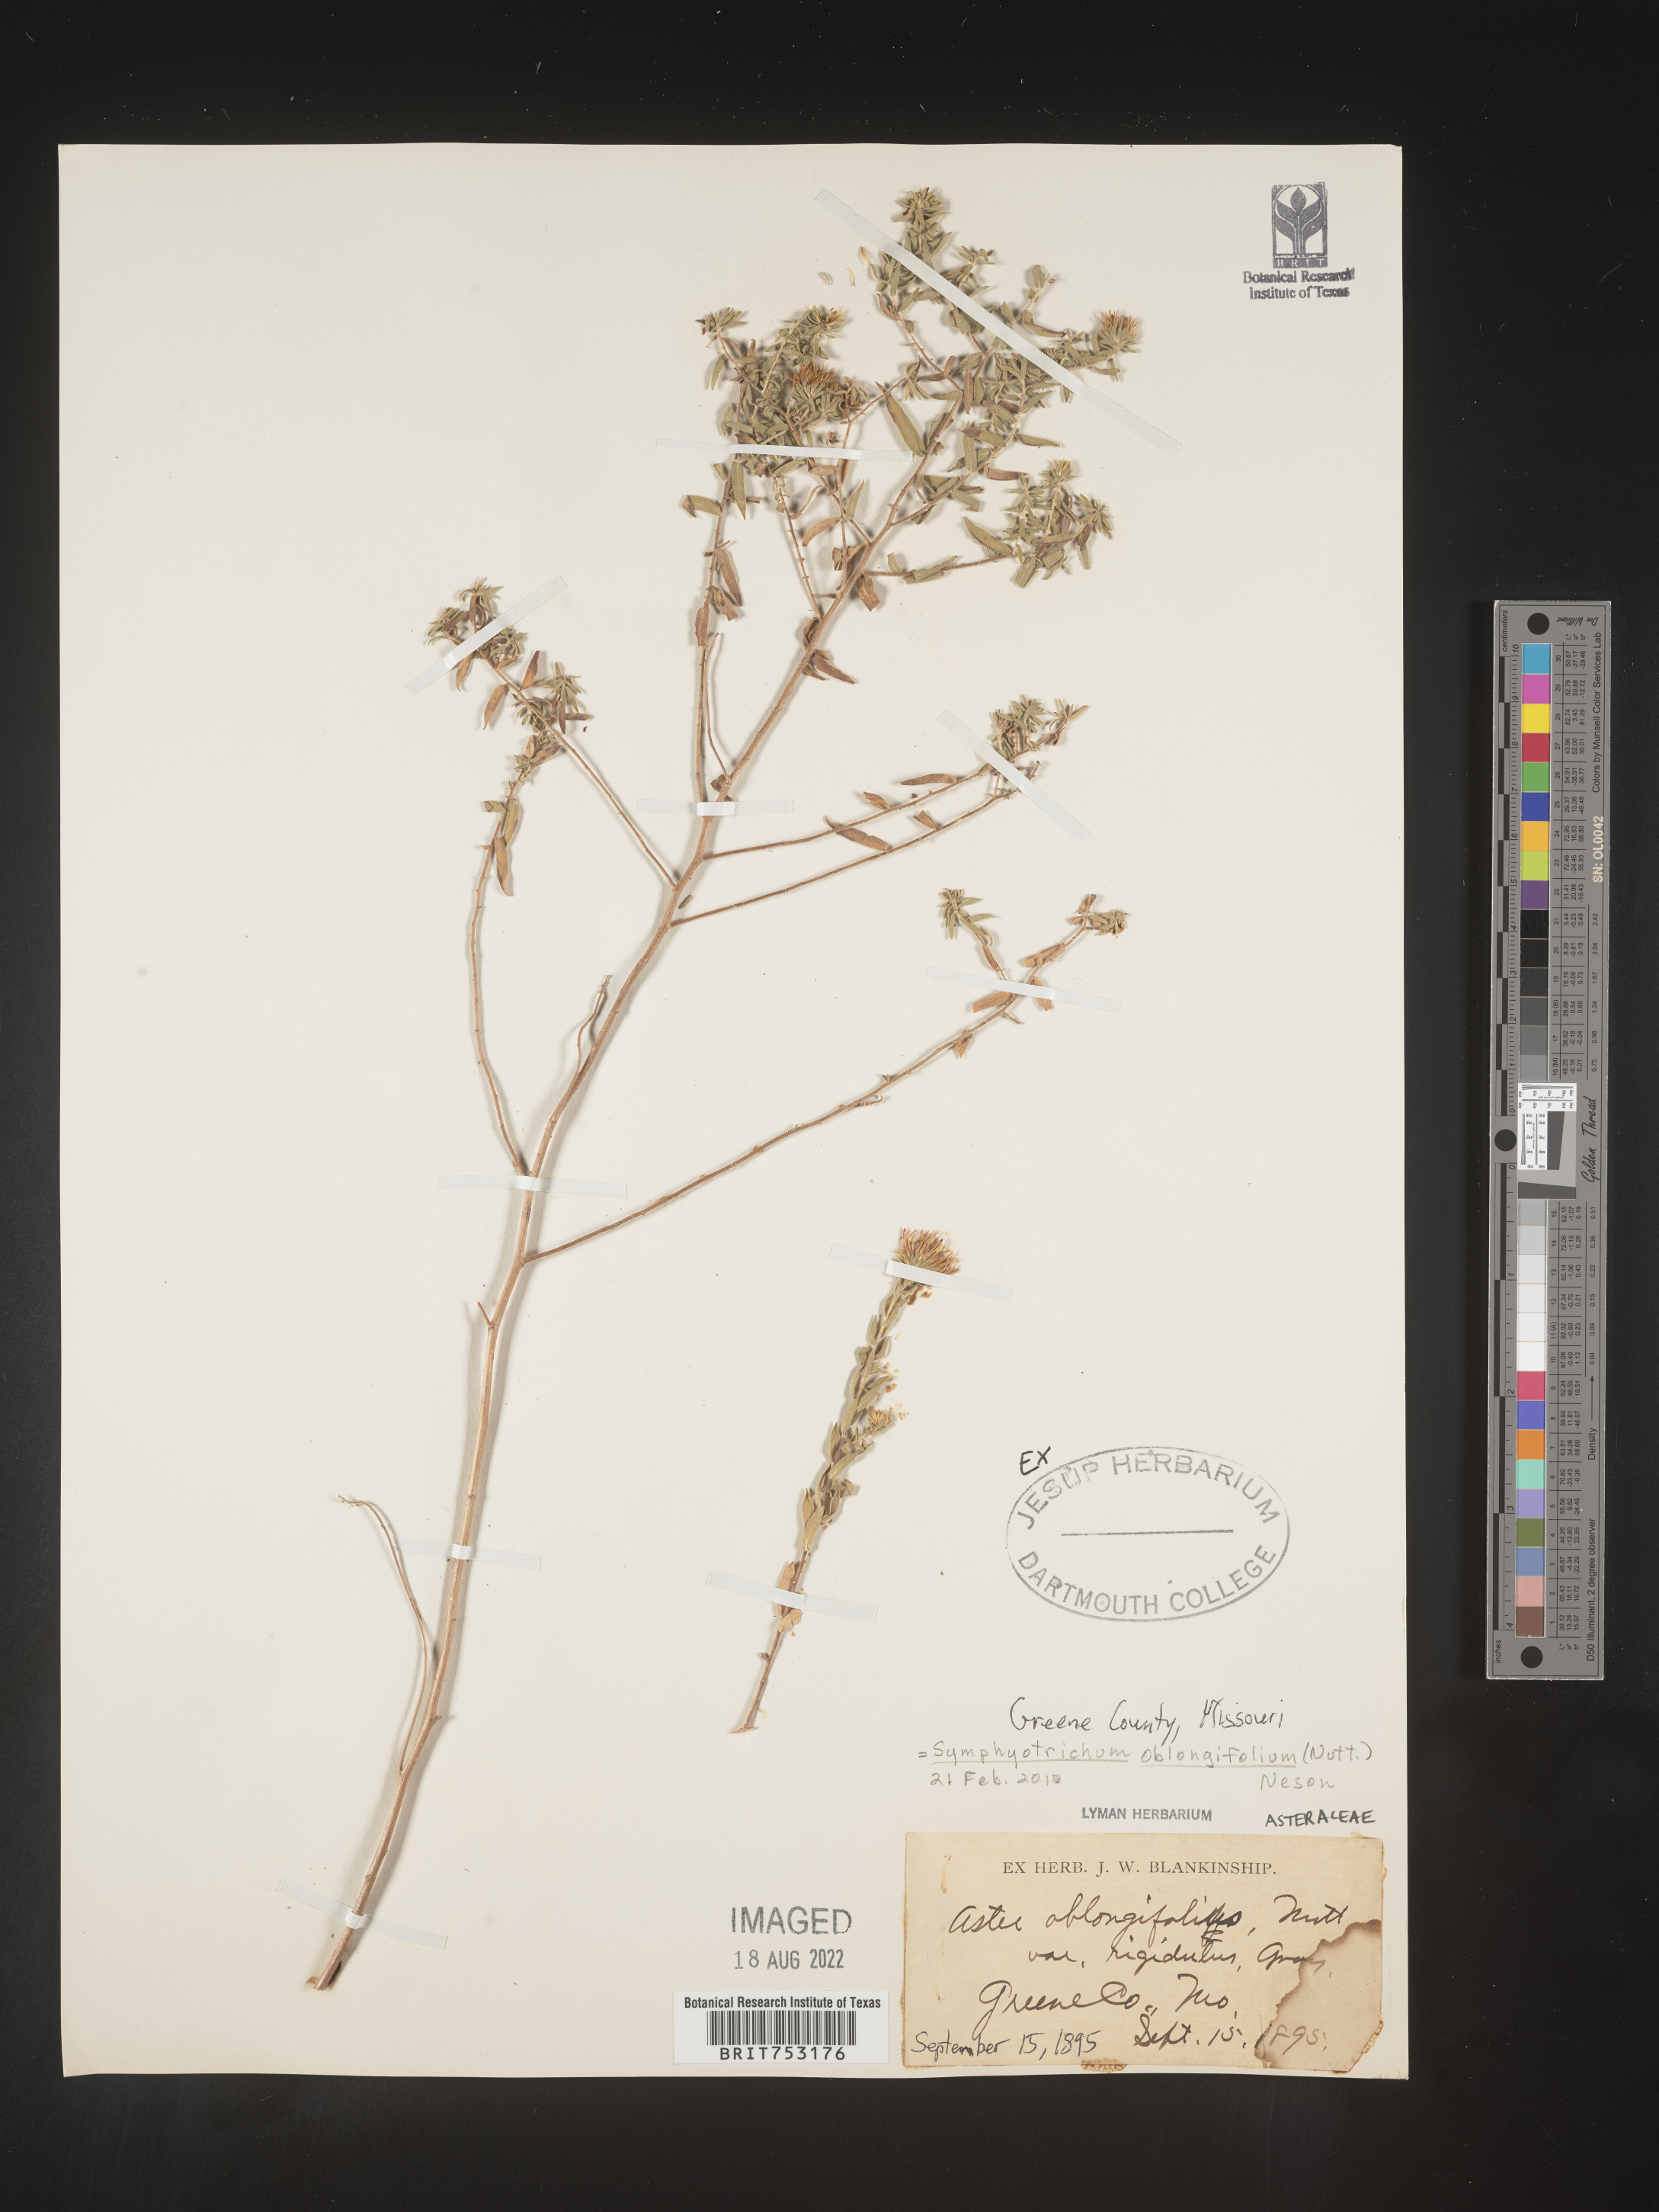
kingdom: Plantae
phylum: Tracheophyta
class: Magnoliopsida
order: Asterales
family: Asteraceae
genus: Symphyotrichum
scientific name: Symphyotrichum oblongifolium
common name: Aromatic aster
